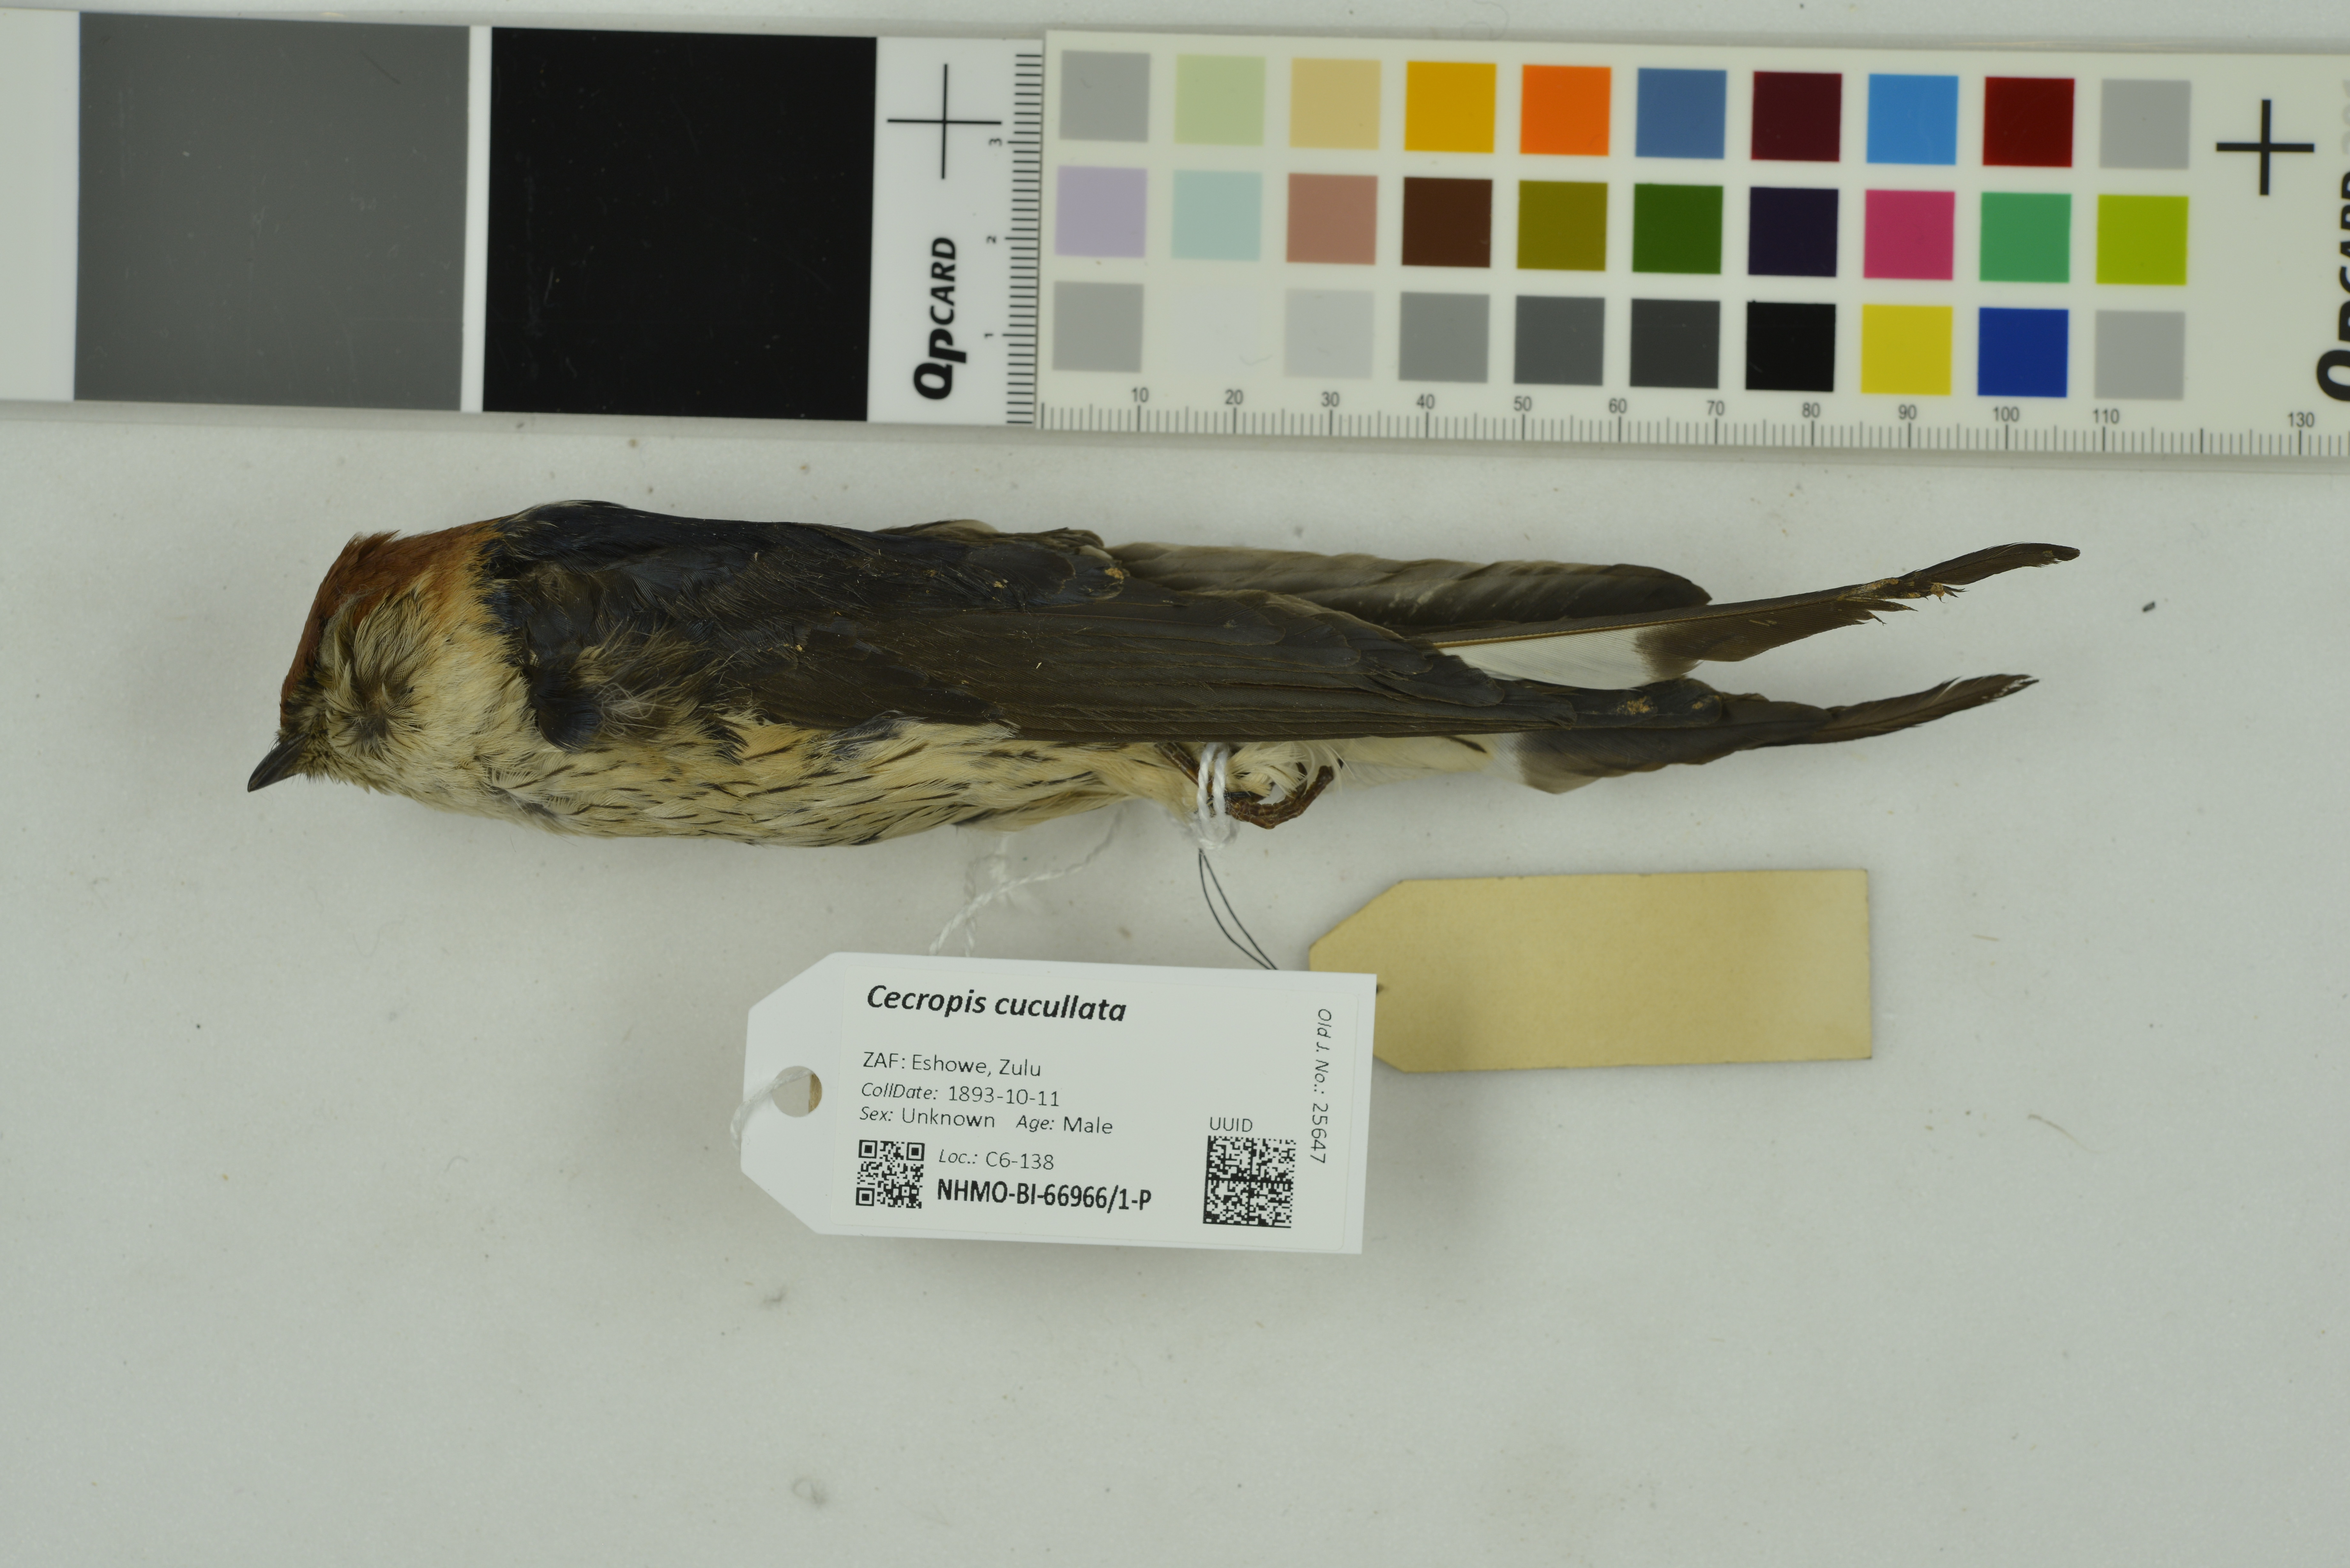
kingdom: Animalia
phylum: Chordata
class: Aves
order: Passeriformes
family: Hirundinidae
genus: Cecropis
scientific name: Cecropis cucullata
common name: Greater striped-swallow
